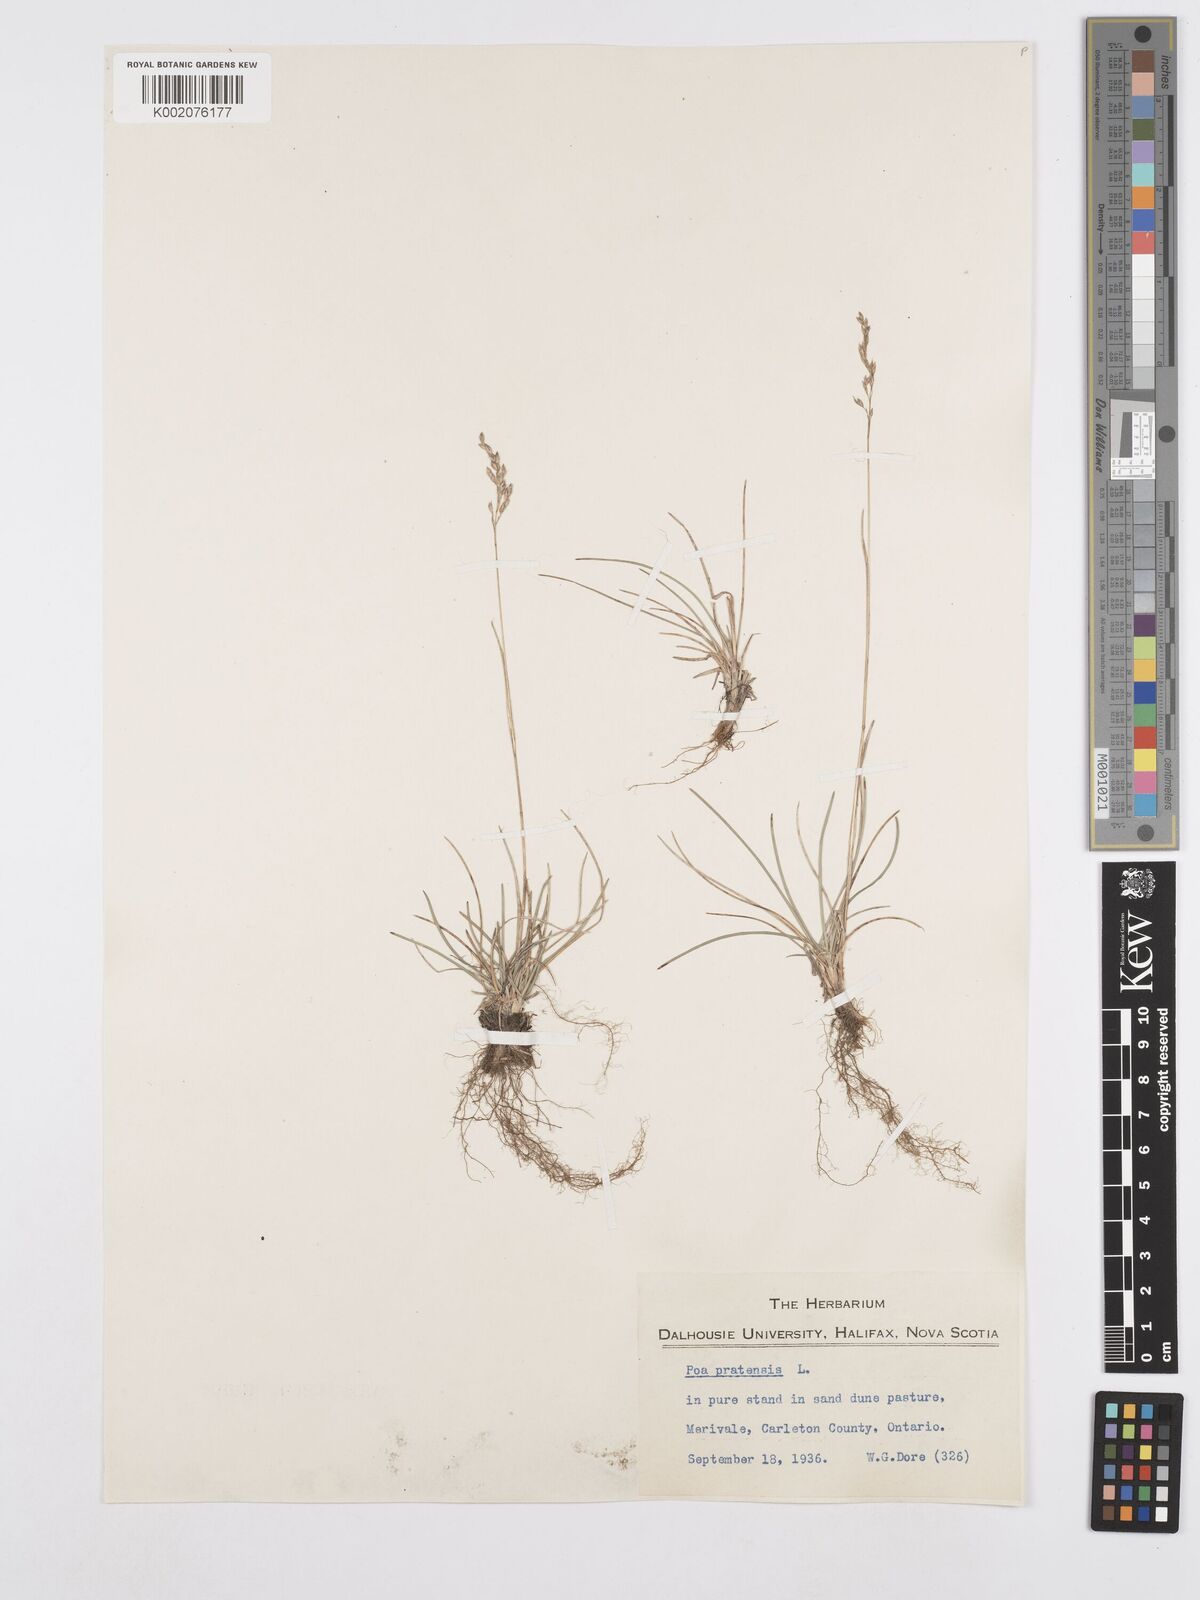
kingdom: Plantae
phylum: Tracheophyta
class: Liliopsida
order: Poales
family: Poaceae
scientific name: Poaceae
